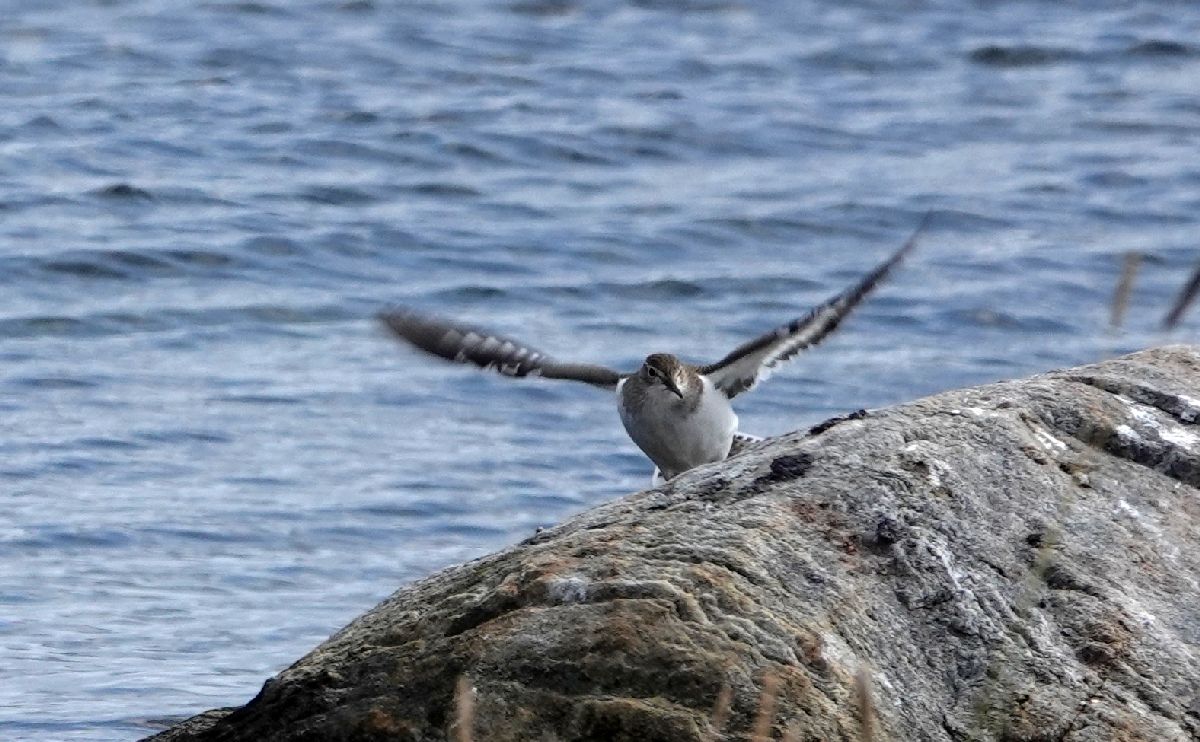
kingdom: Animalia
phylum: Chordata
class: Aves
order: Charadriiformes
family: Scolopacidae
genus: Actitis
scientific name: Actitis hypoleucos
